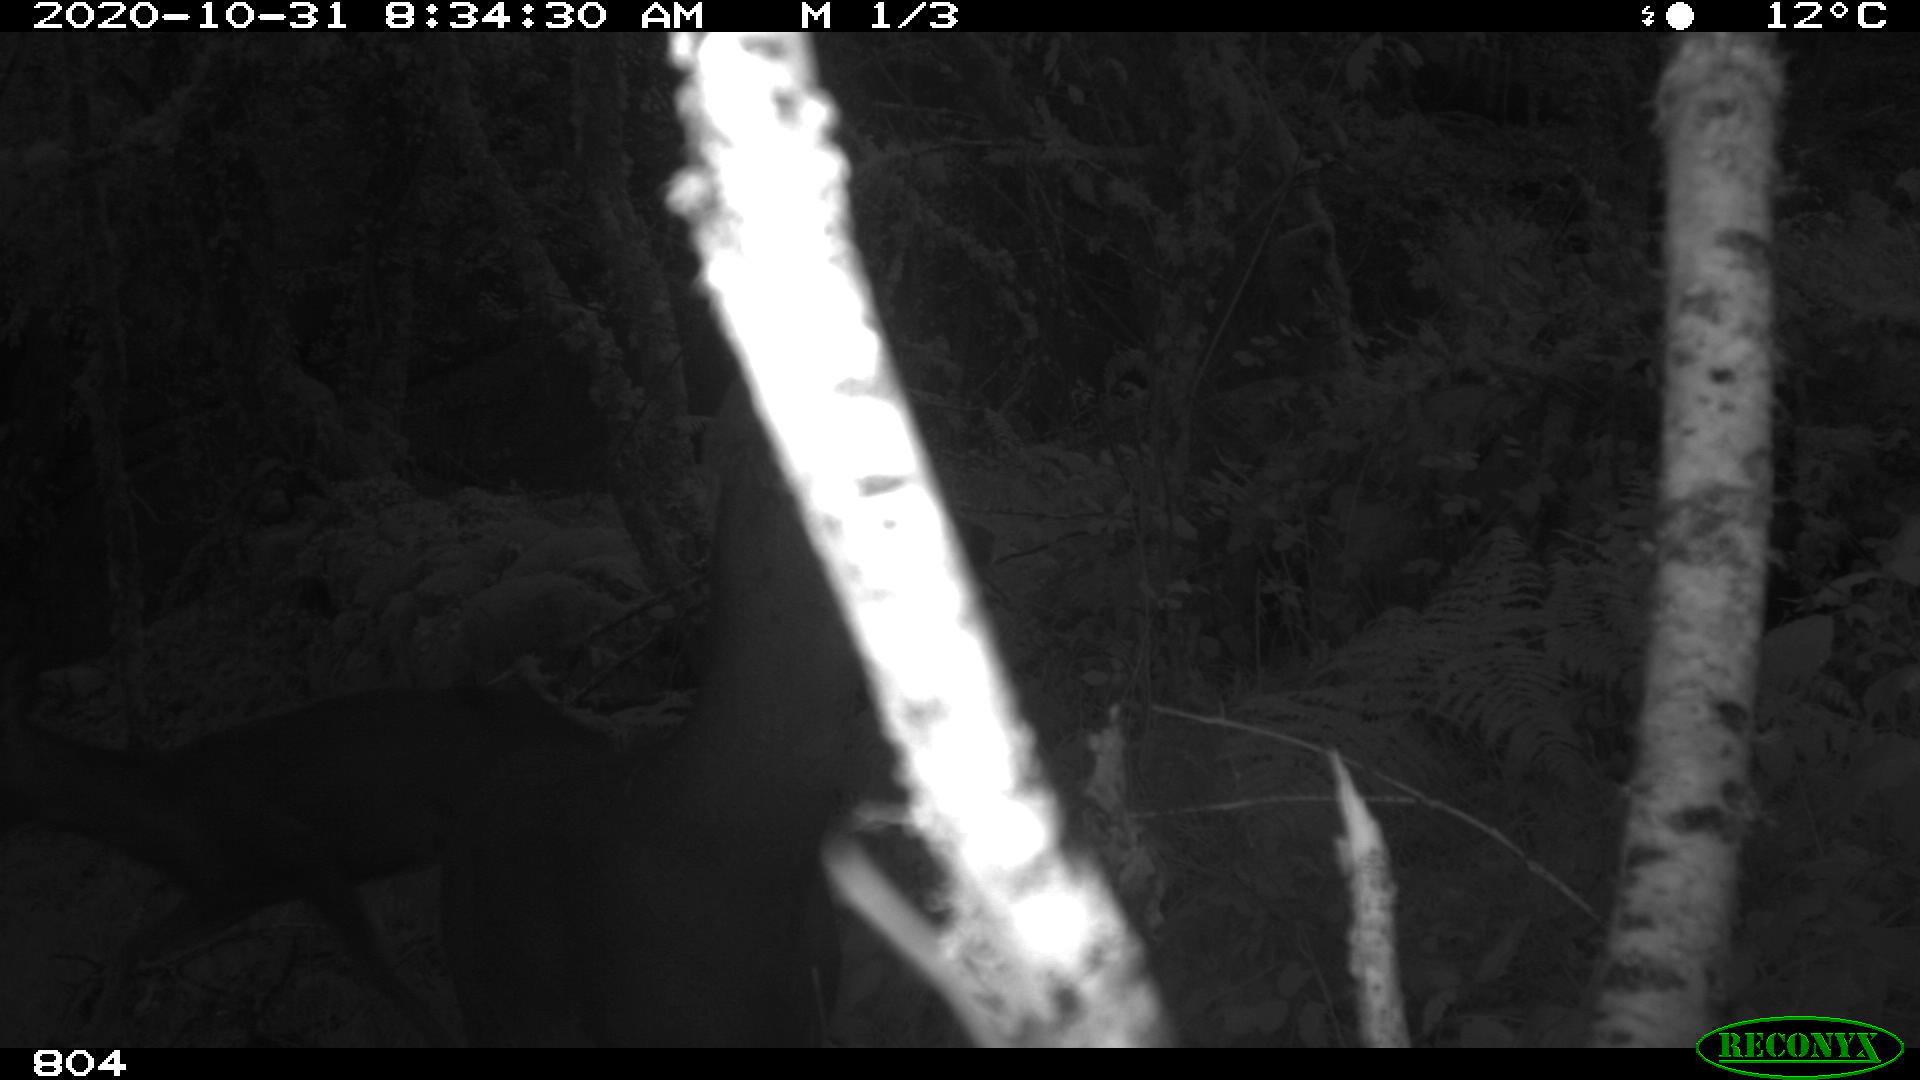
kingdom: Animalia
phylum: Chordata
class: Mammalia
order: Artiodactyla
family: Cervidae
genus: Capreolus
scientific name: Capreolus capreolus
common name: Western roe deer
